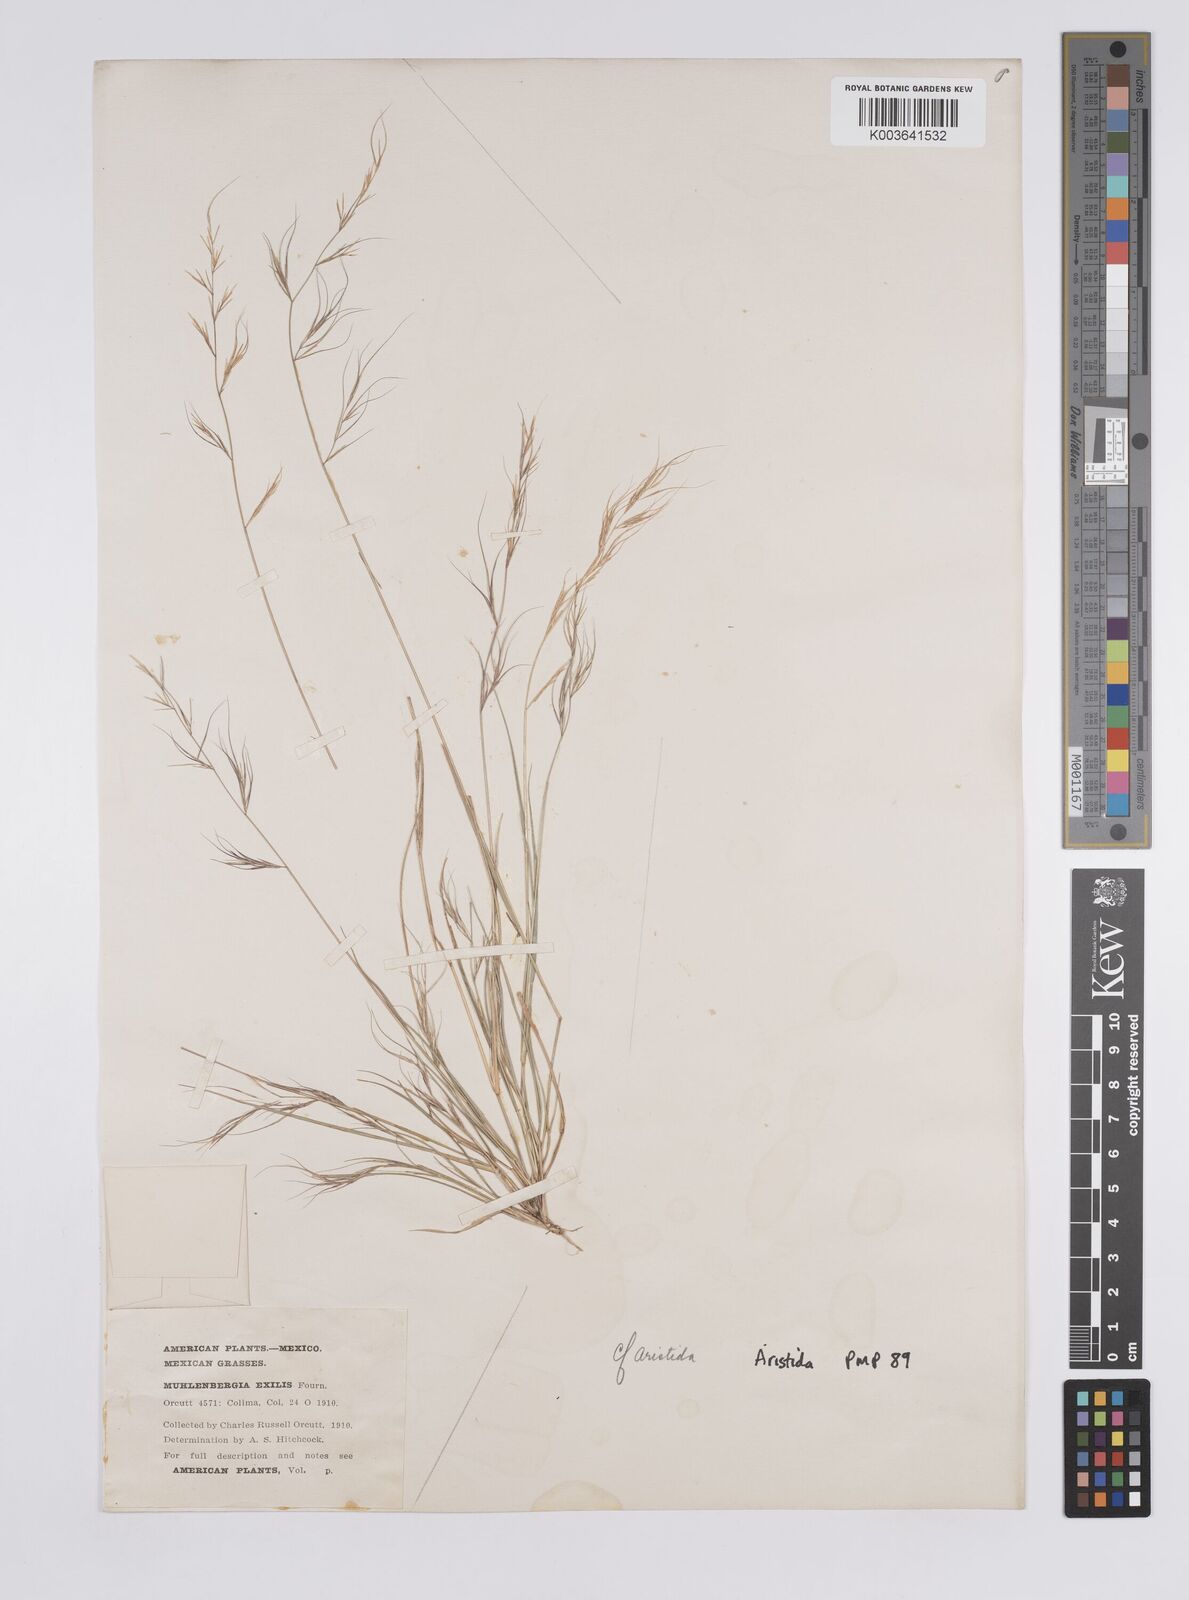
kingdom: Plantae
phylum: Tracheophyta
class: Liliopsida
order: Poales
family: Poaceae
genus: Aristida
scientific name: Aristida
